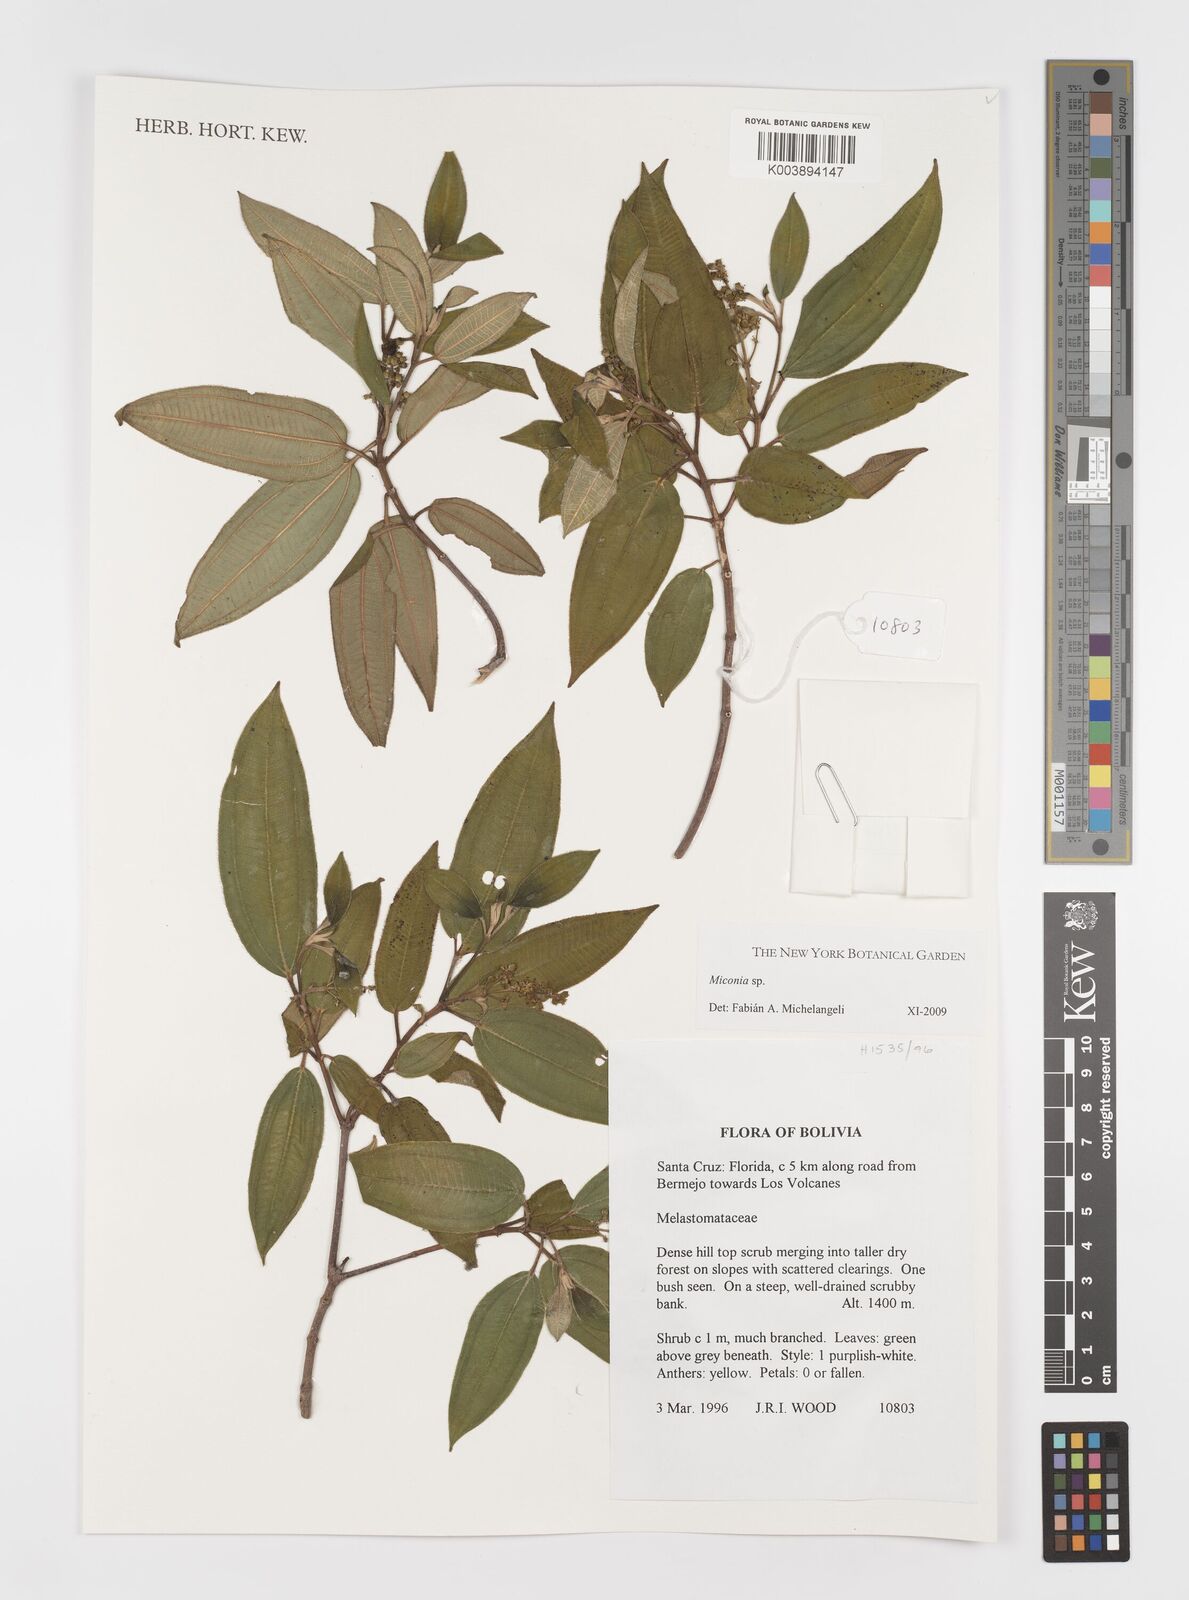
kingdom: Plantae
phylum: Tracheophyta
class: Magnoliopsida
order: Myrtales
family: Melastomataceae
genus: Miconia
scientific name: Miconia
